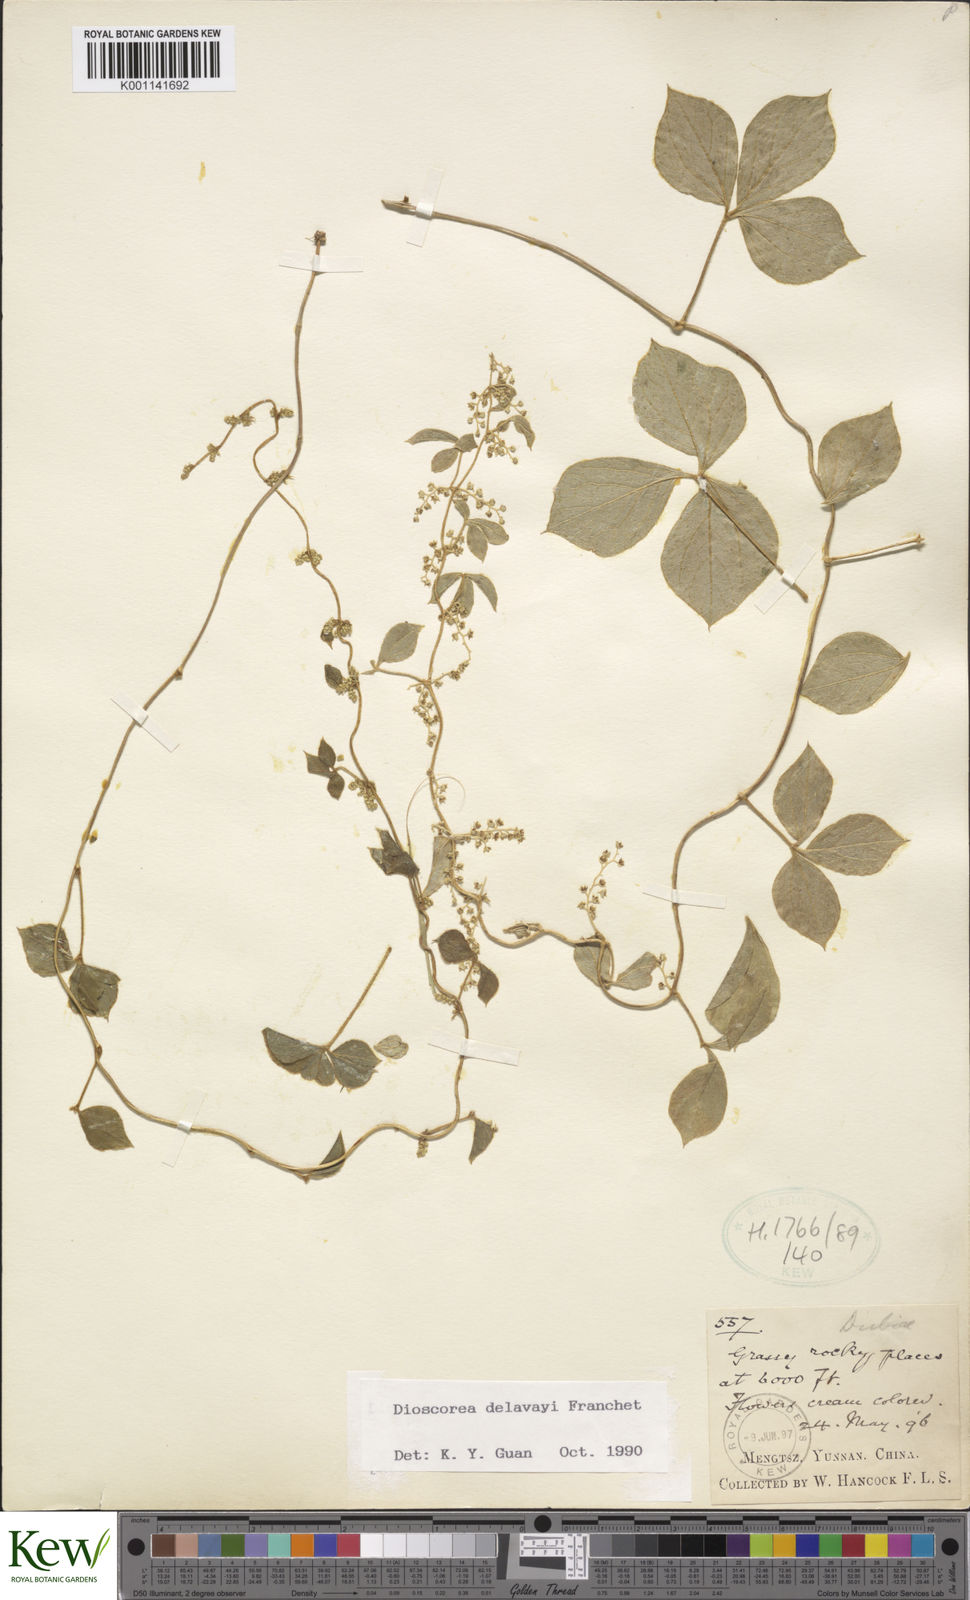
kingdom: Plantae
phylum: Tracheophyta
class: Liliopsida
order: Dioscoreales
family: Dioscoreaceae
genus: Dioscorea
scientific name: Dioscorea kamoonensis
